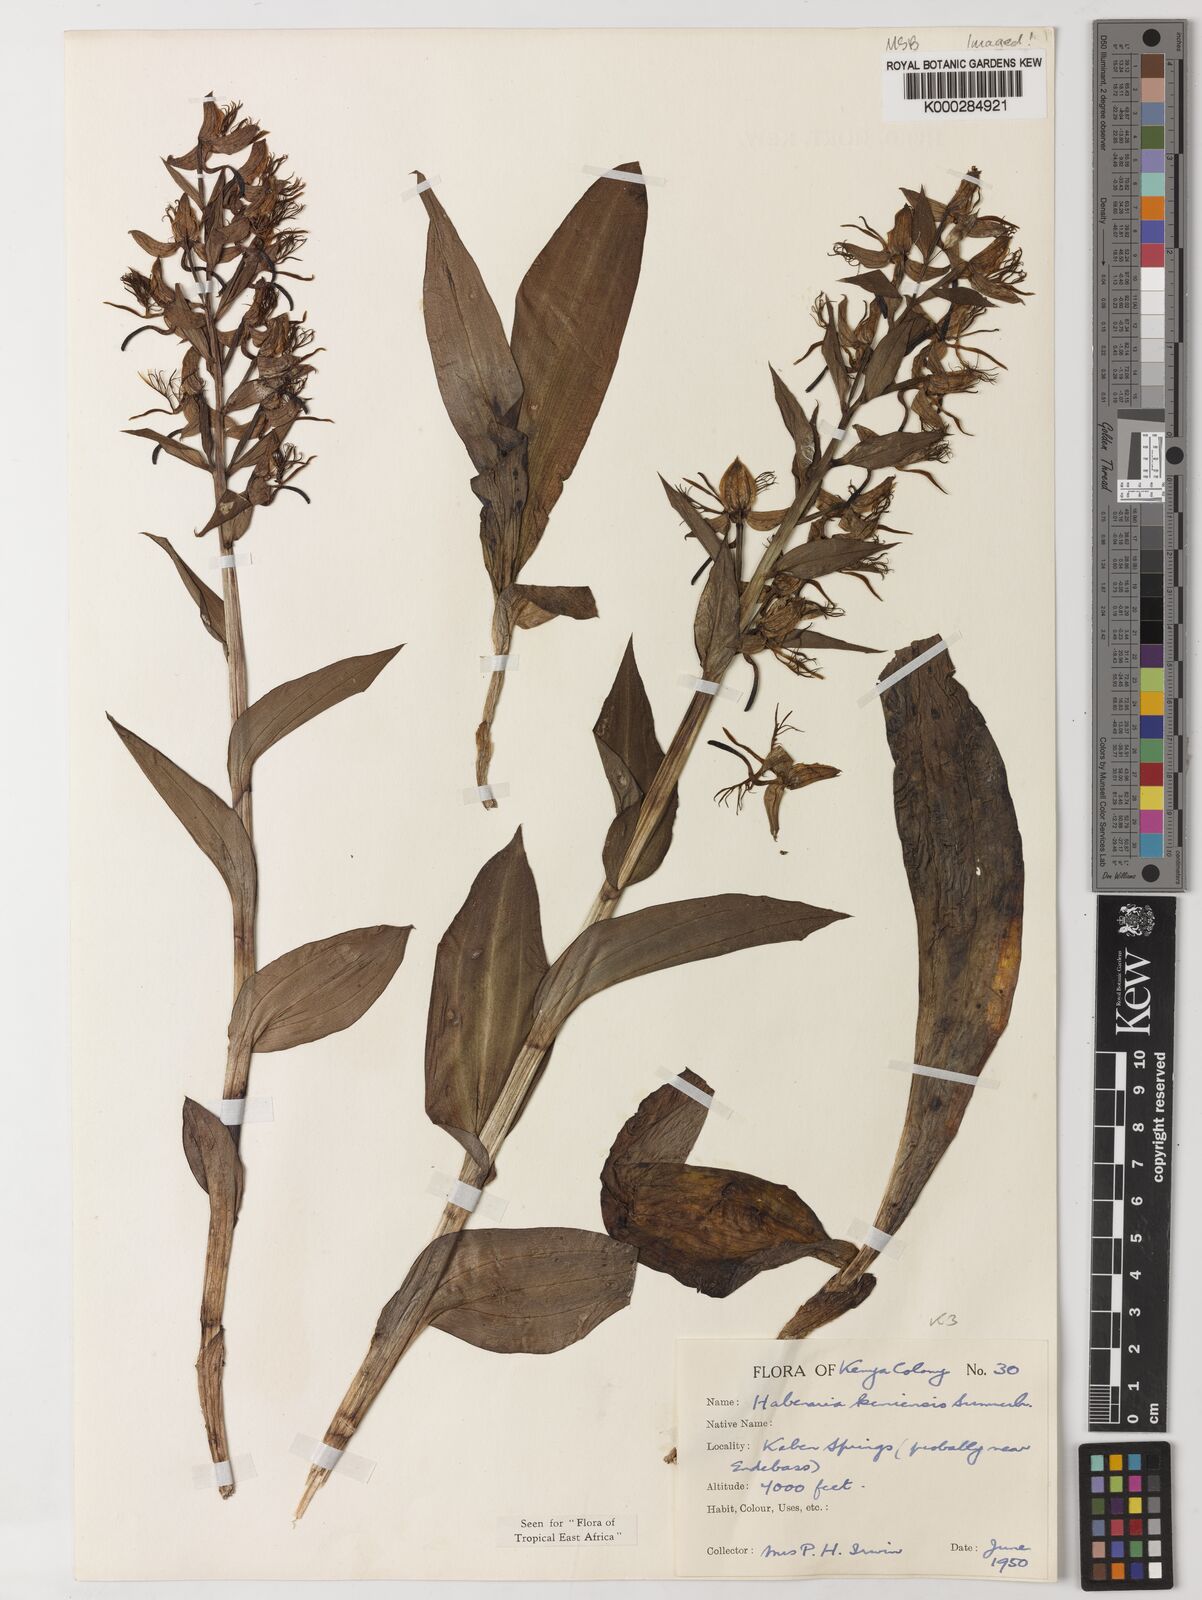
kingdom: Plantae
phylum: Tracheophyta
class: Liliopsida
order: Asparagales
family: Orchidaceae
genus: Habenaria
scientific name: Habenaria keniensis
